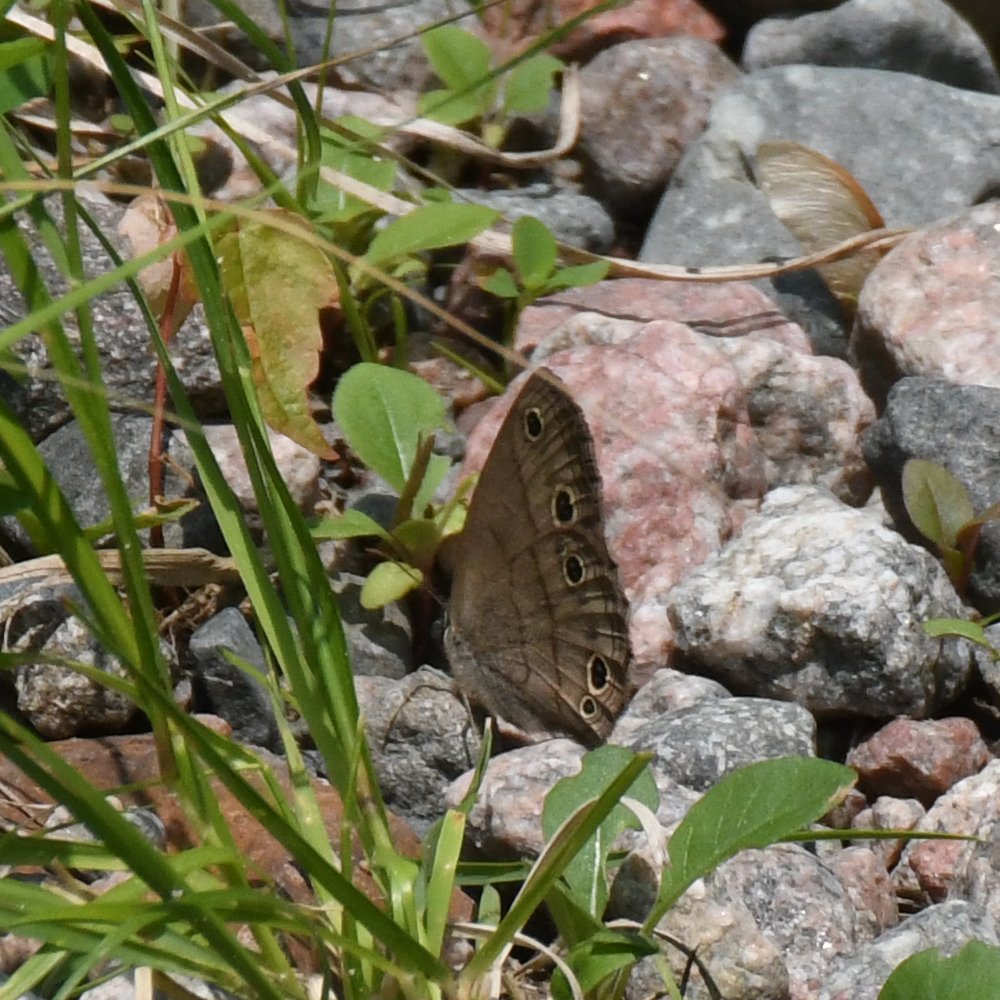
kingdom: Animalia
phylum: Arthropoda
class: Insecta
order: Lepidoptera
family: Nymphalidae
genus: Euptychia
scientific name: Euptychia cymela
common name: Little Wood Satyr
